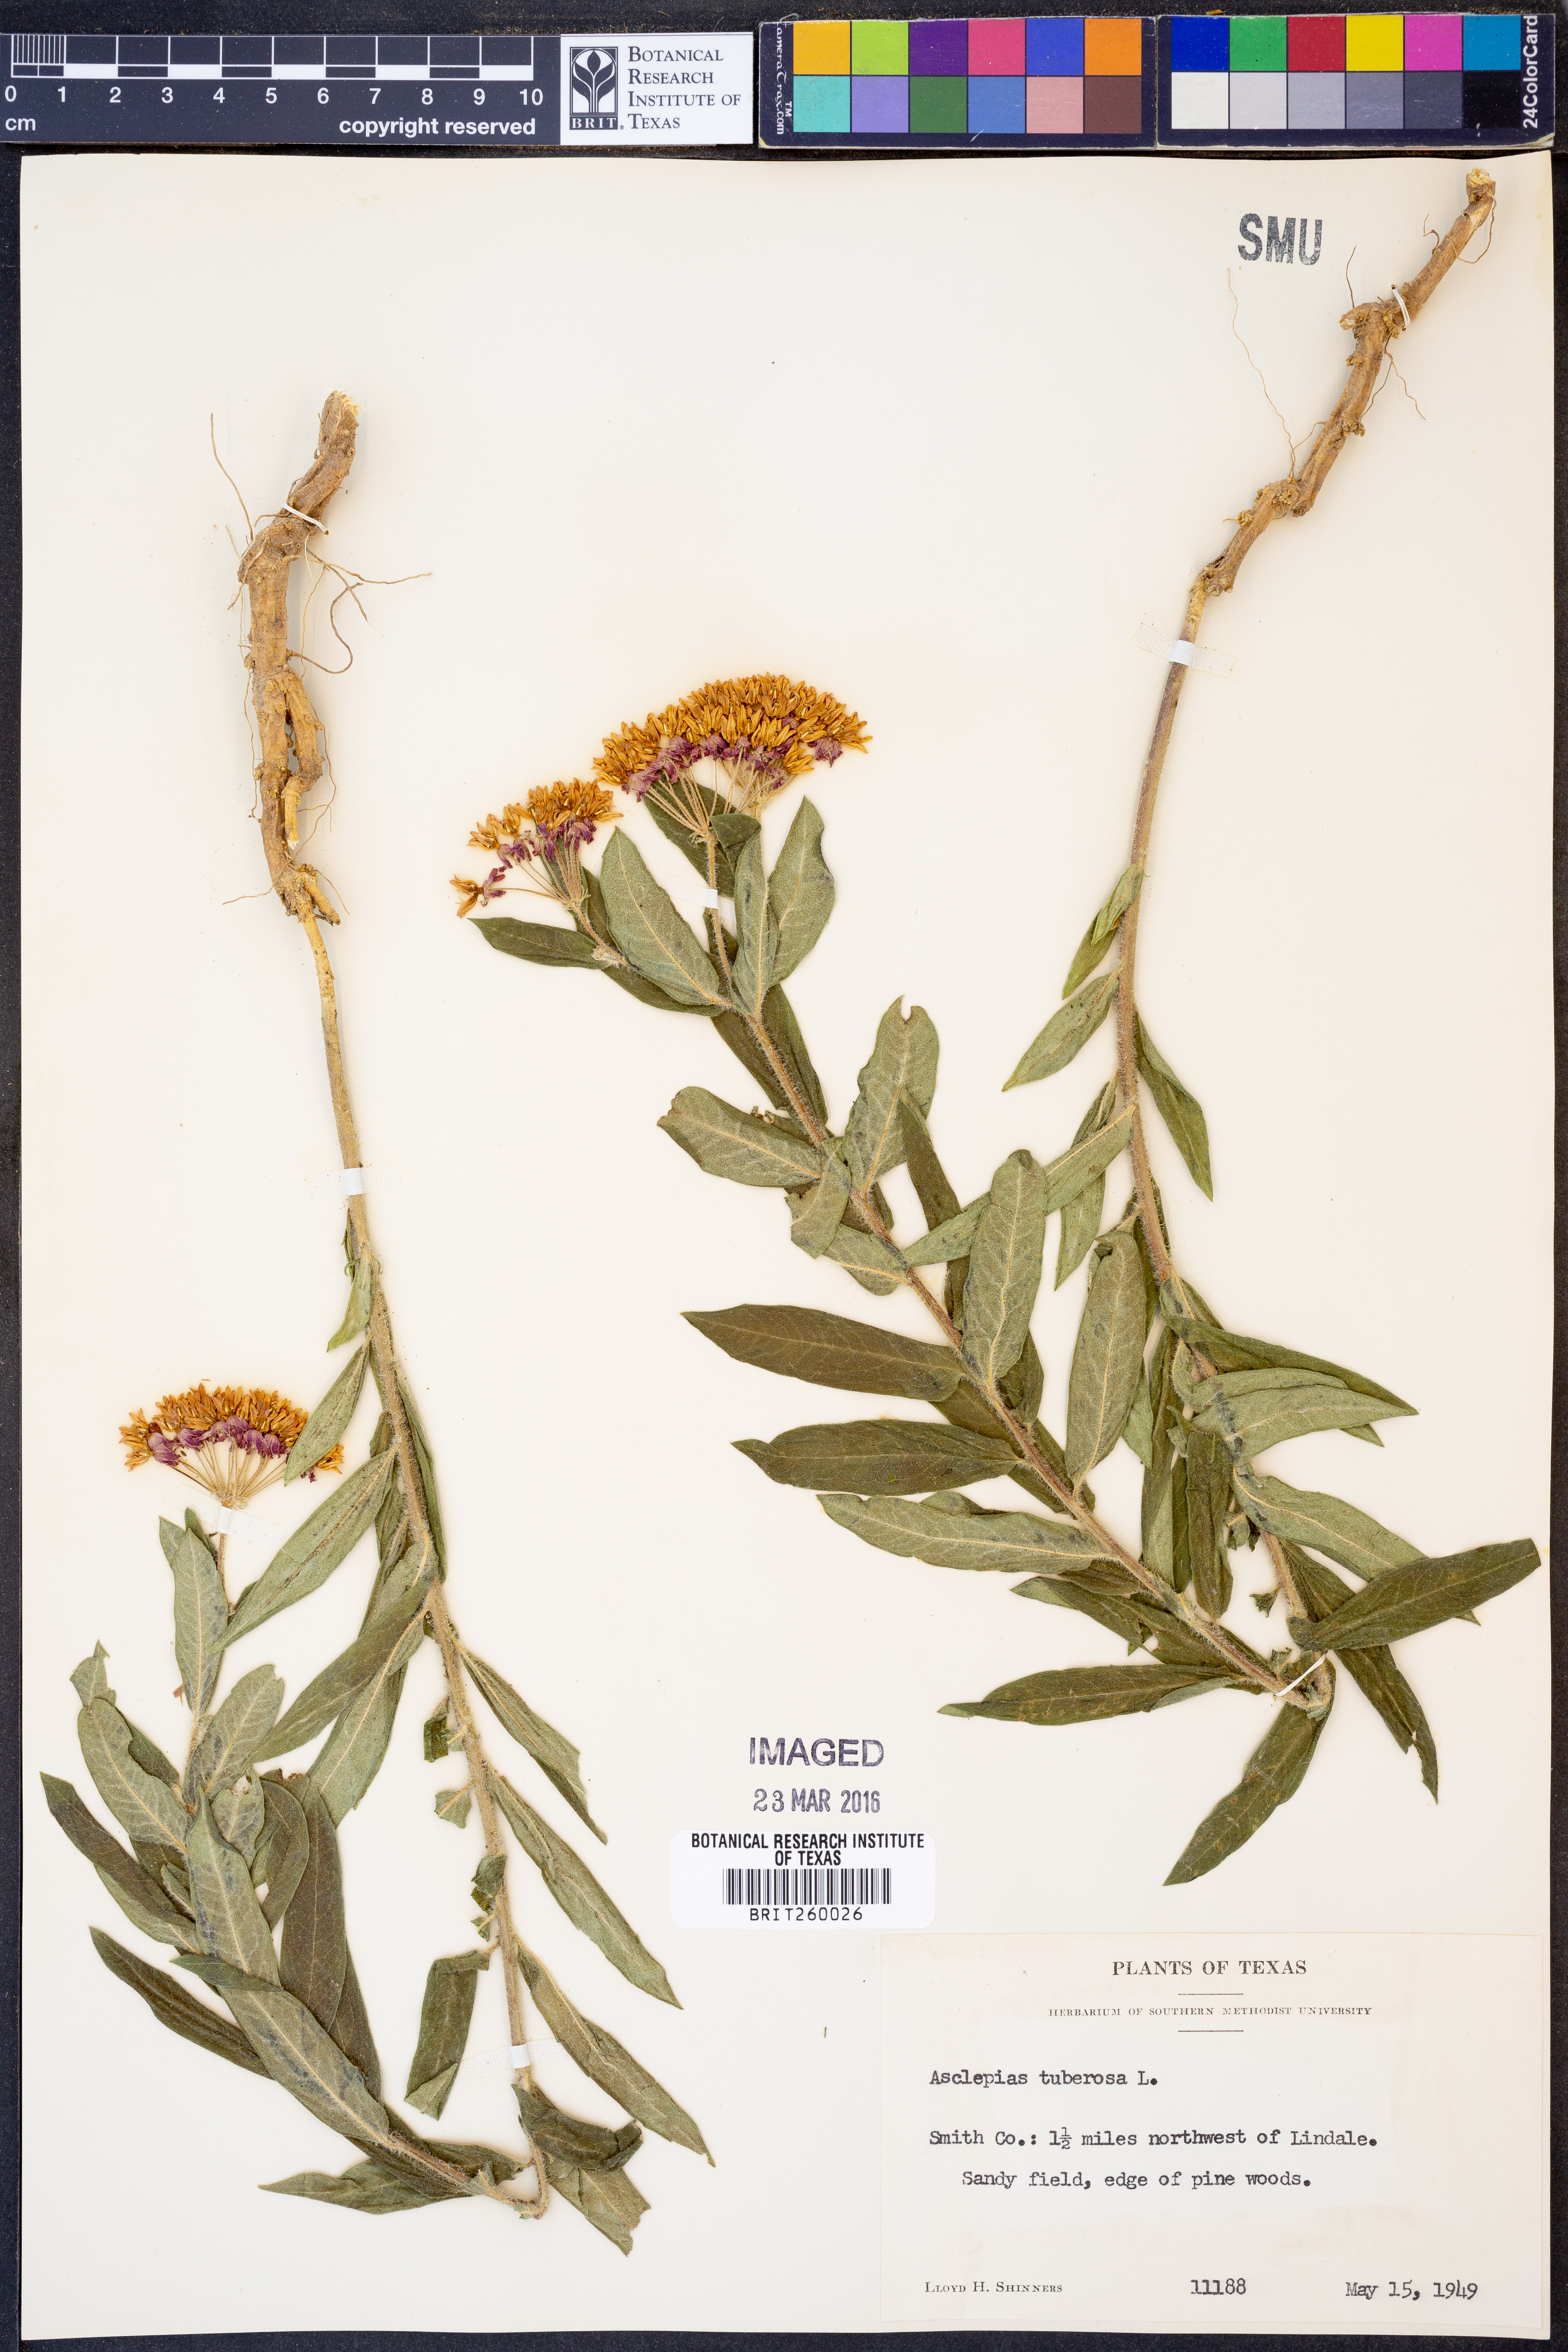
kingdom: Plantae
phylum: Tracheophyta
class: Magnoliopsida
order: Gentianales
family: Apocynaceae
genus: Asclepias
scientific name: Asclepias tuberosa
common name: Butterfly milkweed
